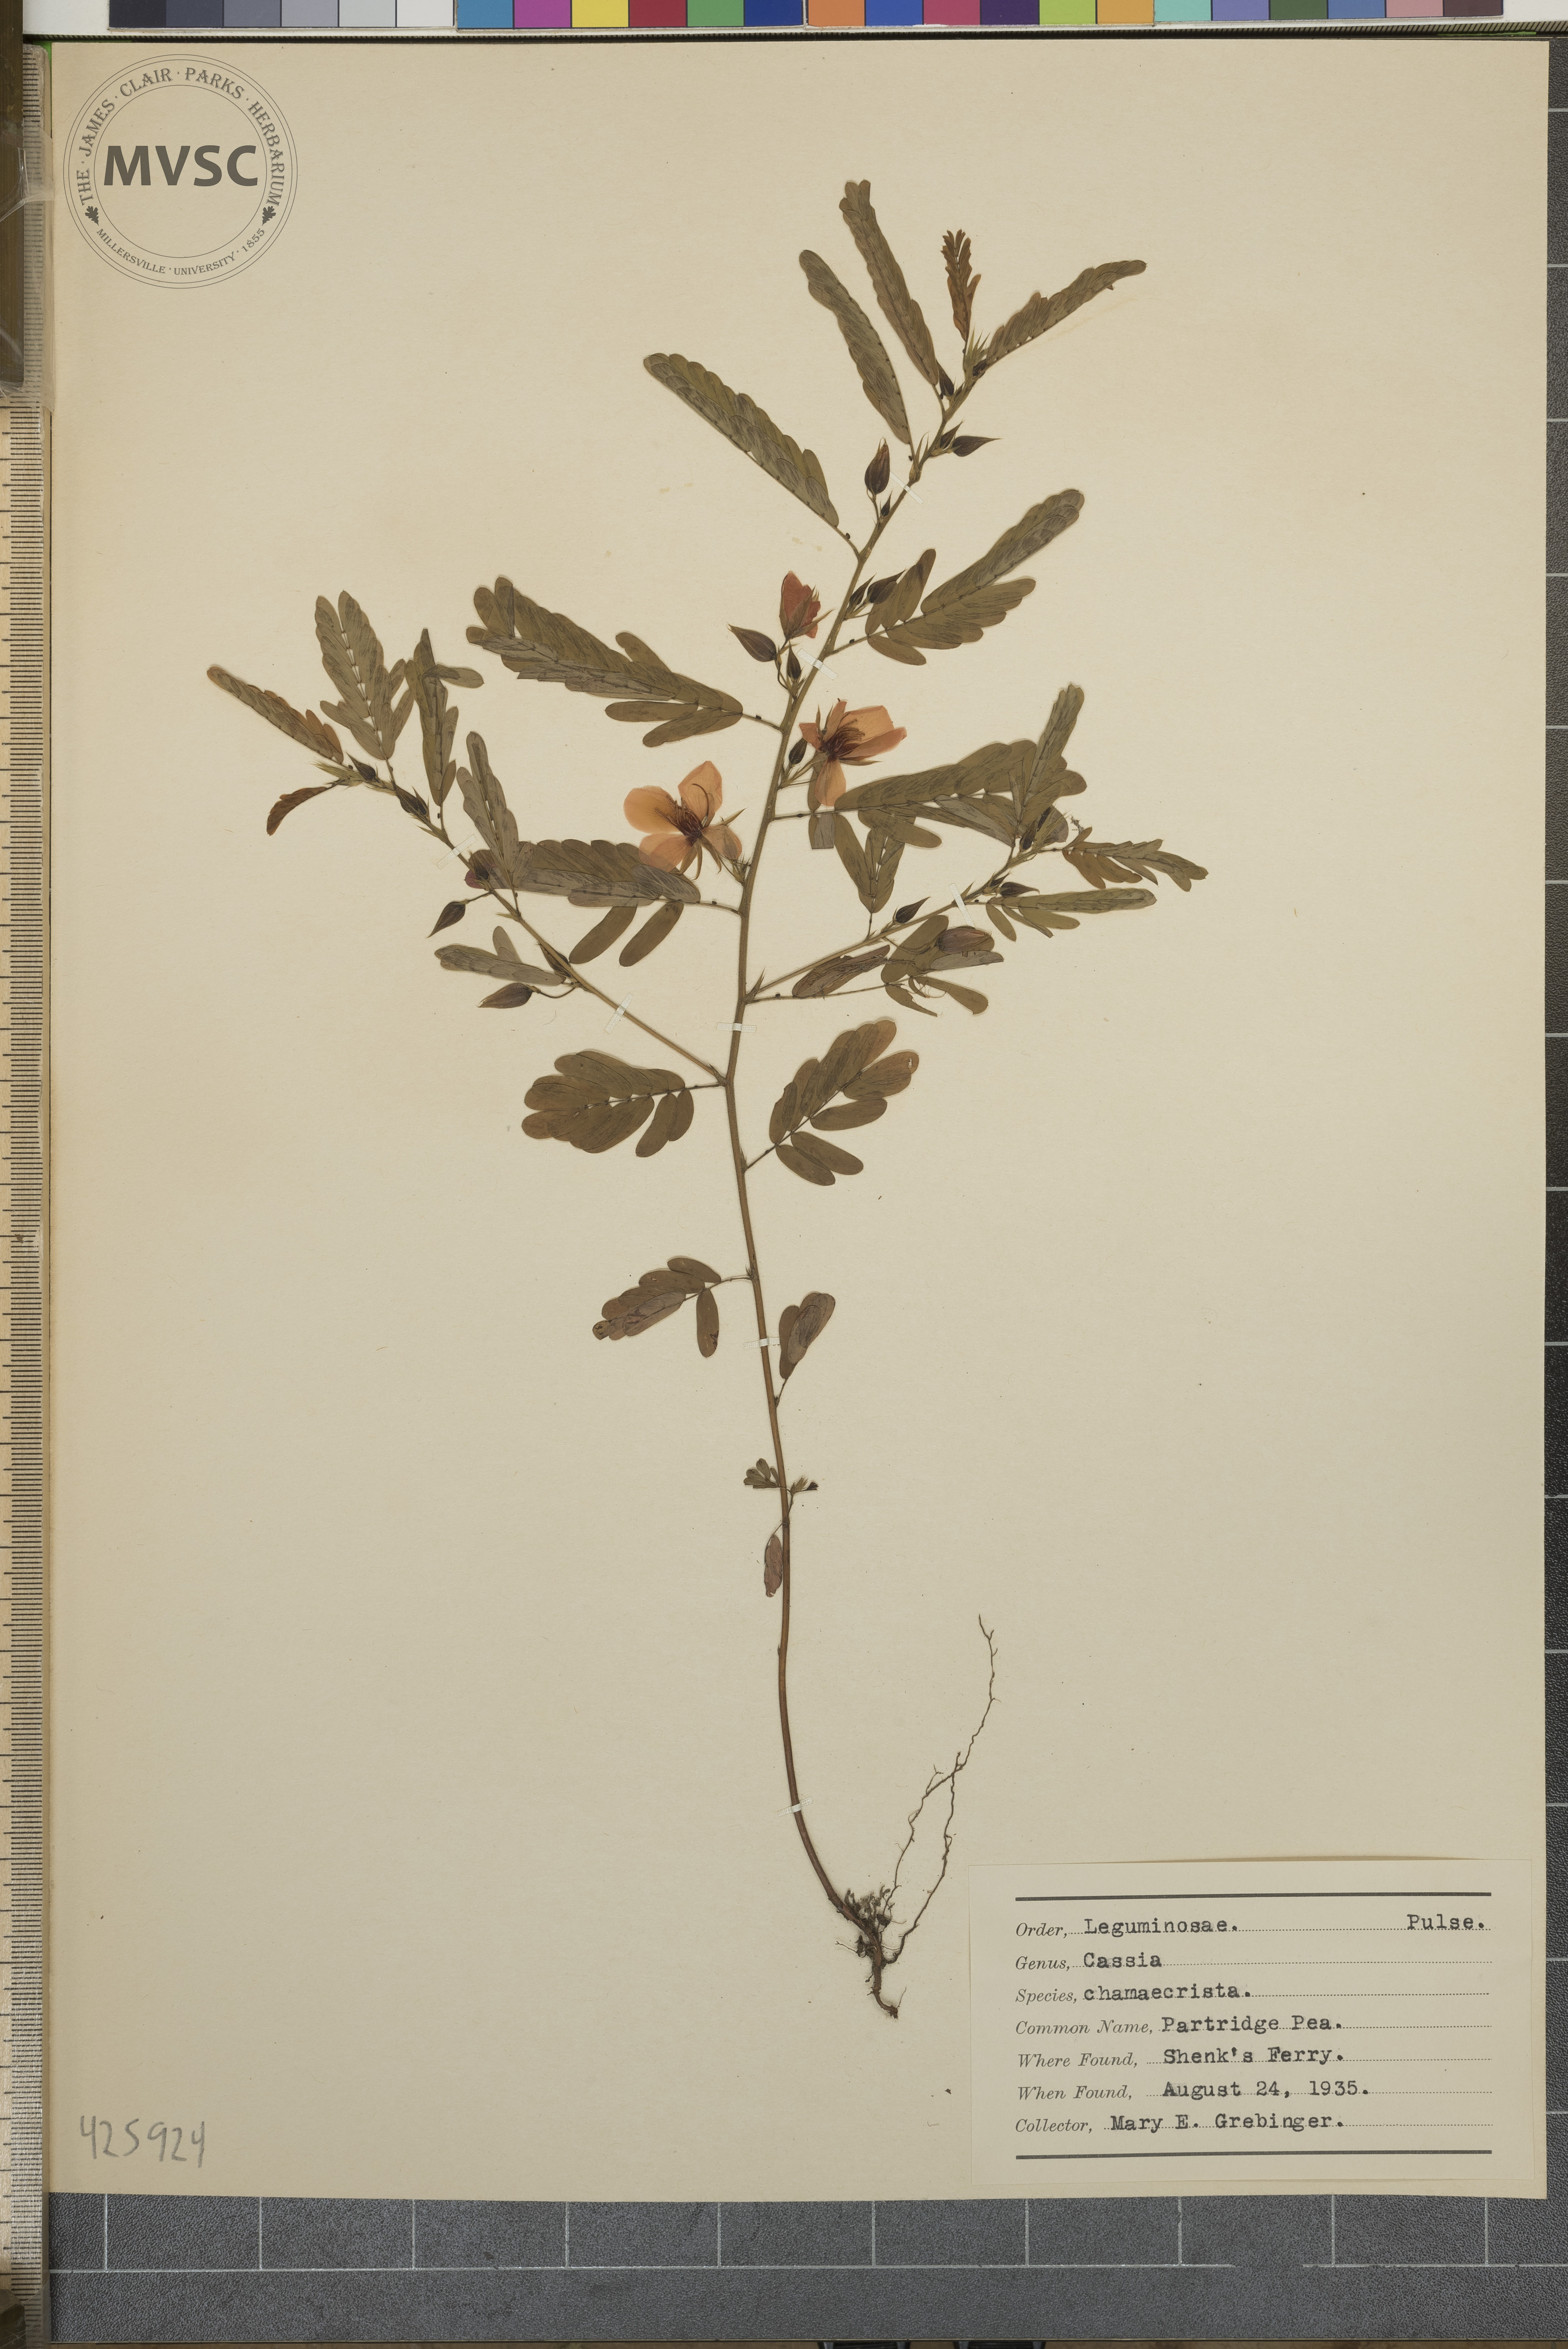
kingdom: Plantae
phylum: Tracheophyta
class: Magnoliopsida
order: Fabales
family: Fabaceae
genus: Chamaecrista
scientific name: Chamaecrista fasciculata
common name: Partridge Pea
